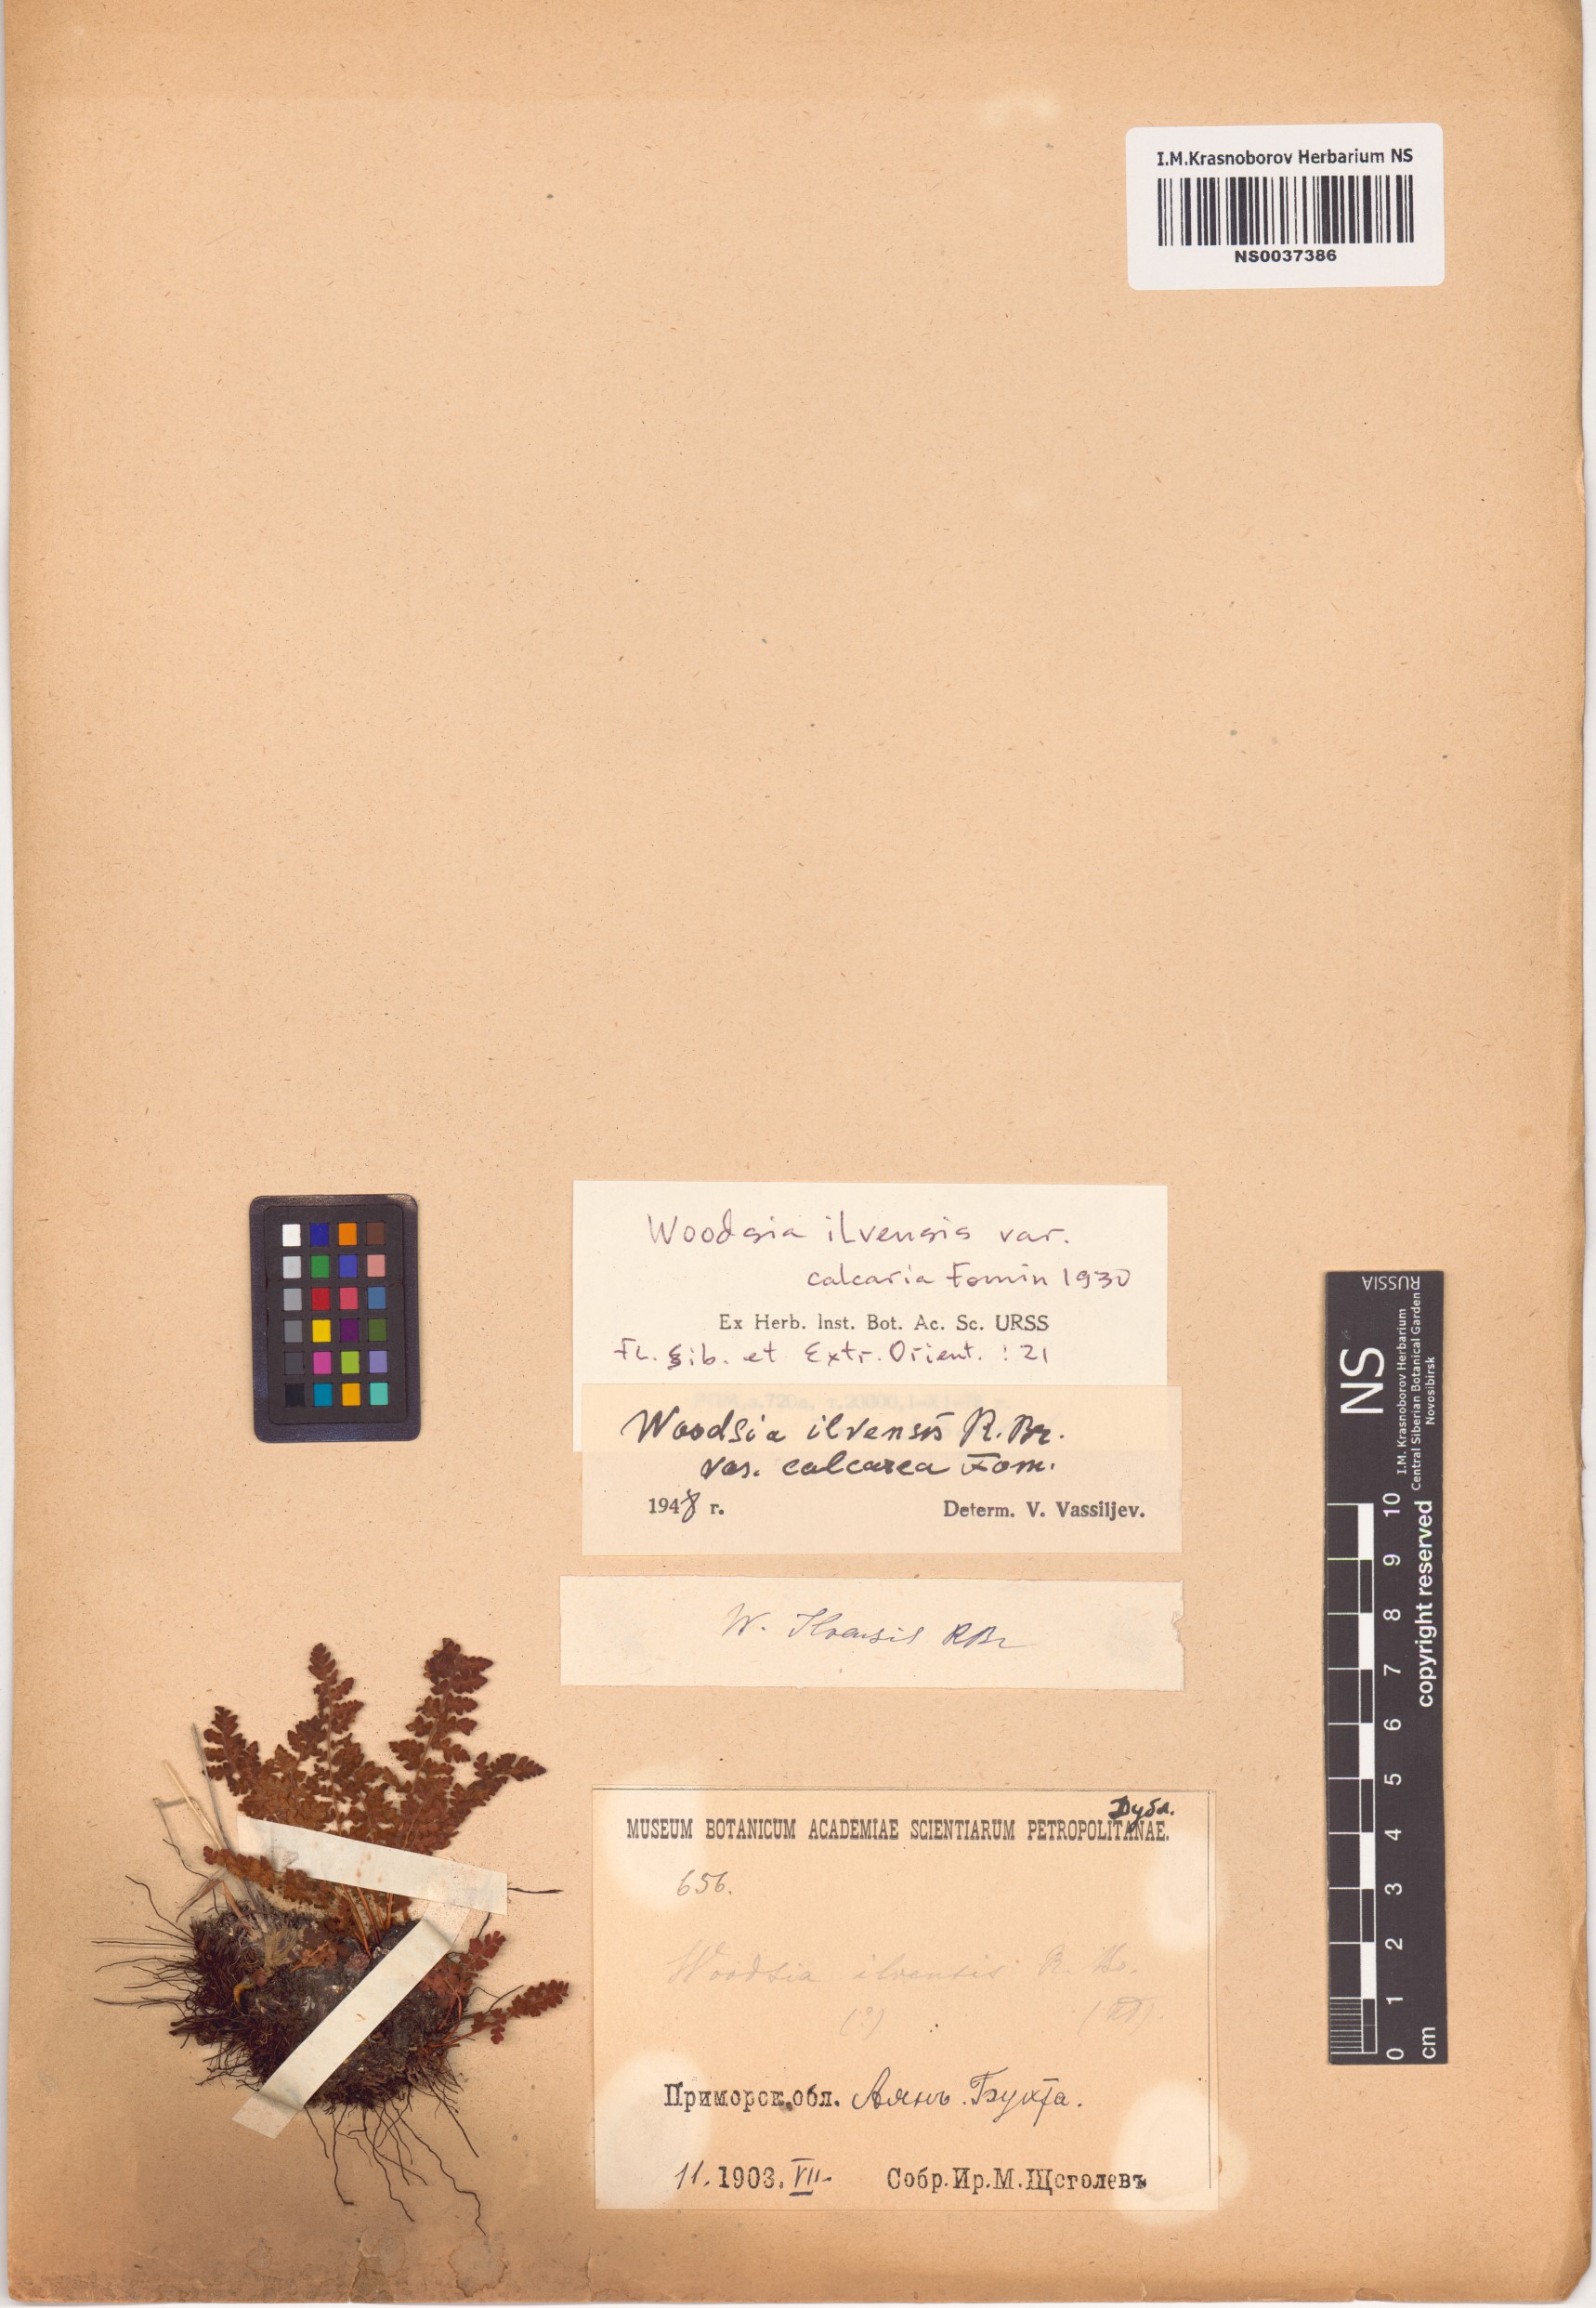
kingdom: Plantae
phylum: Tracheophyta
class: Polypodiopsida
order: Polypodiales
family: Woodsiaceae
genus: Woodsia
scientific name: Woodsia calcarea
